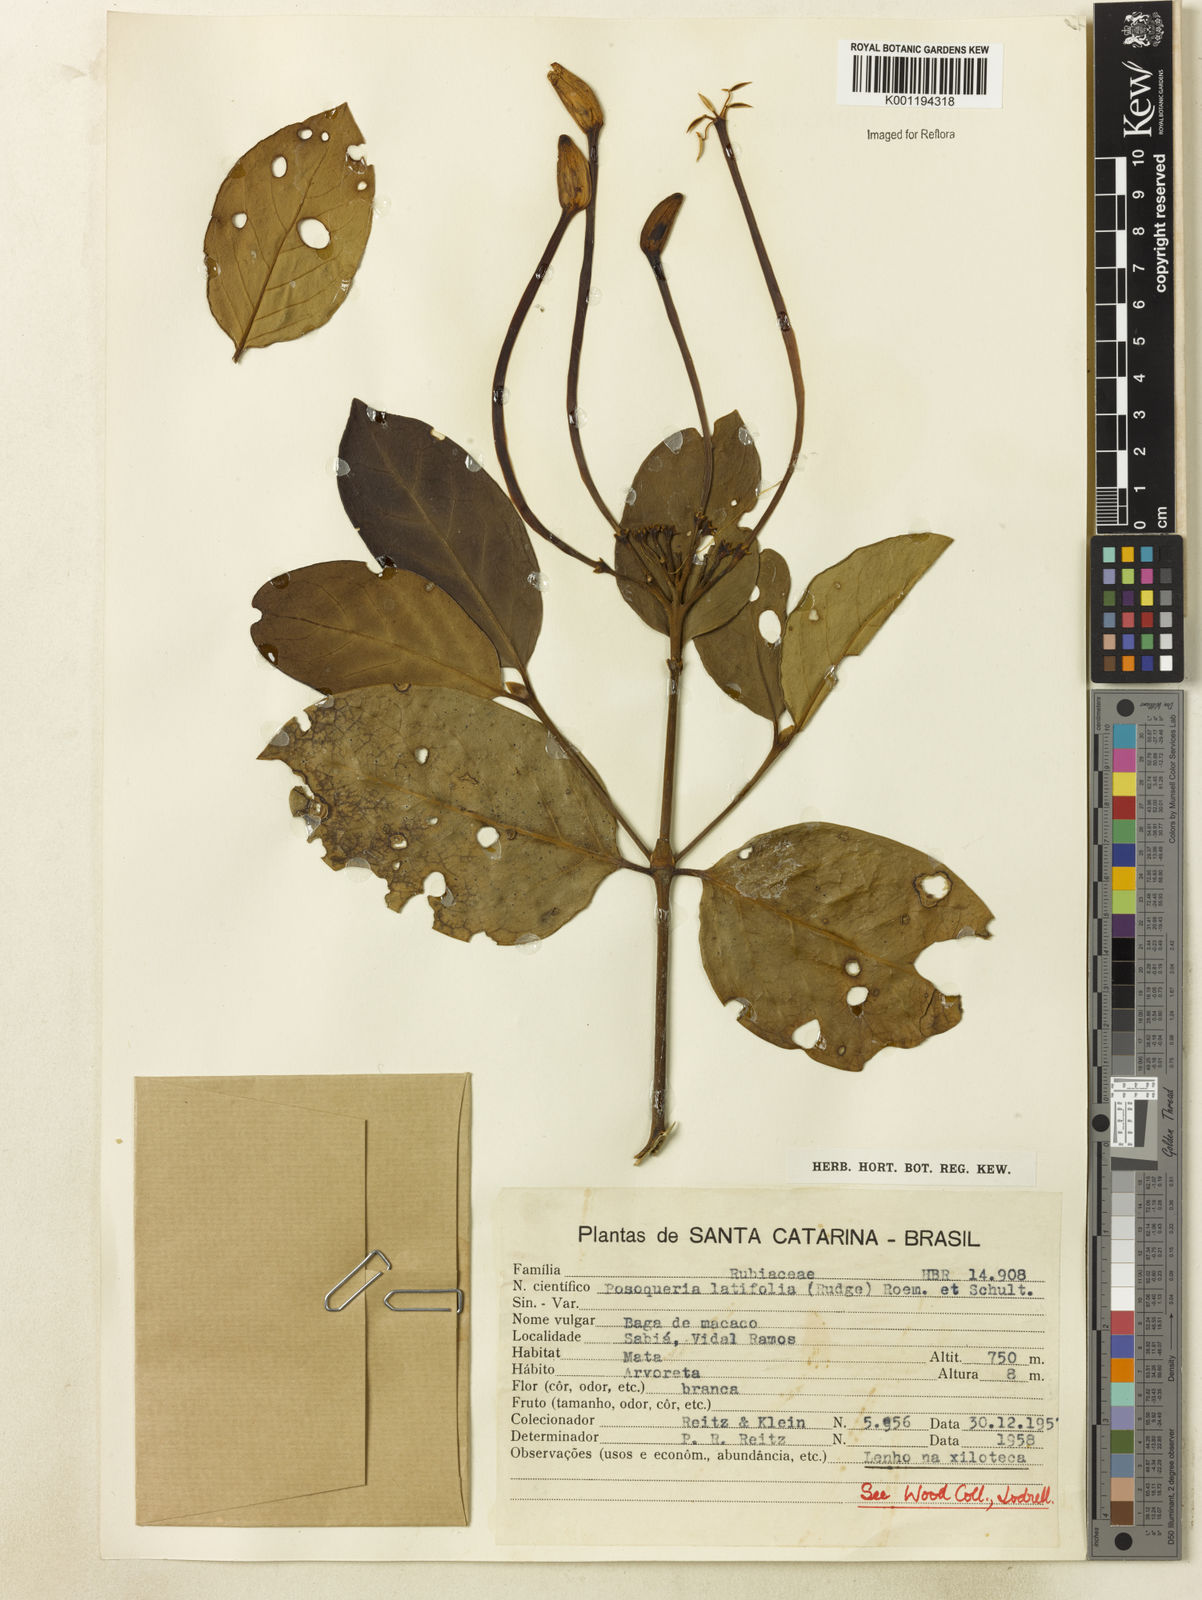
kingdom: Plantae
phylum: Tracheophyta
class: Magnoliopsida
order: Gentianales
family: Rubiaceae
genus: Posoqueria
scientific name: Posoqueria latifolia
